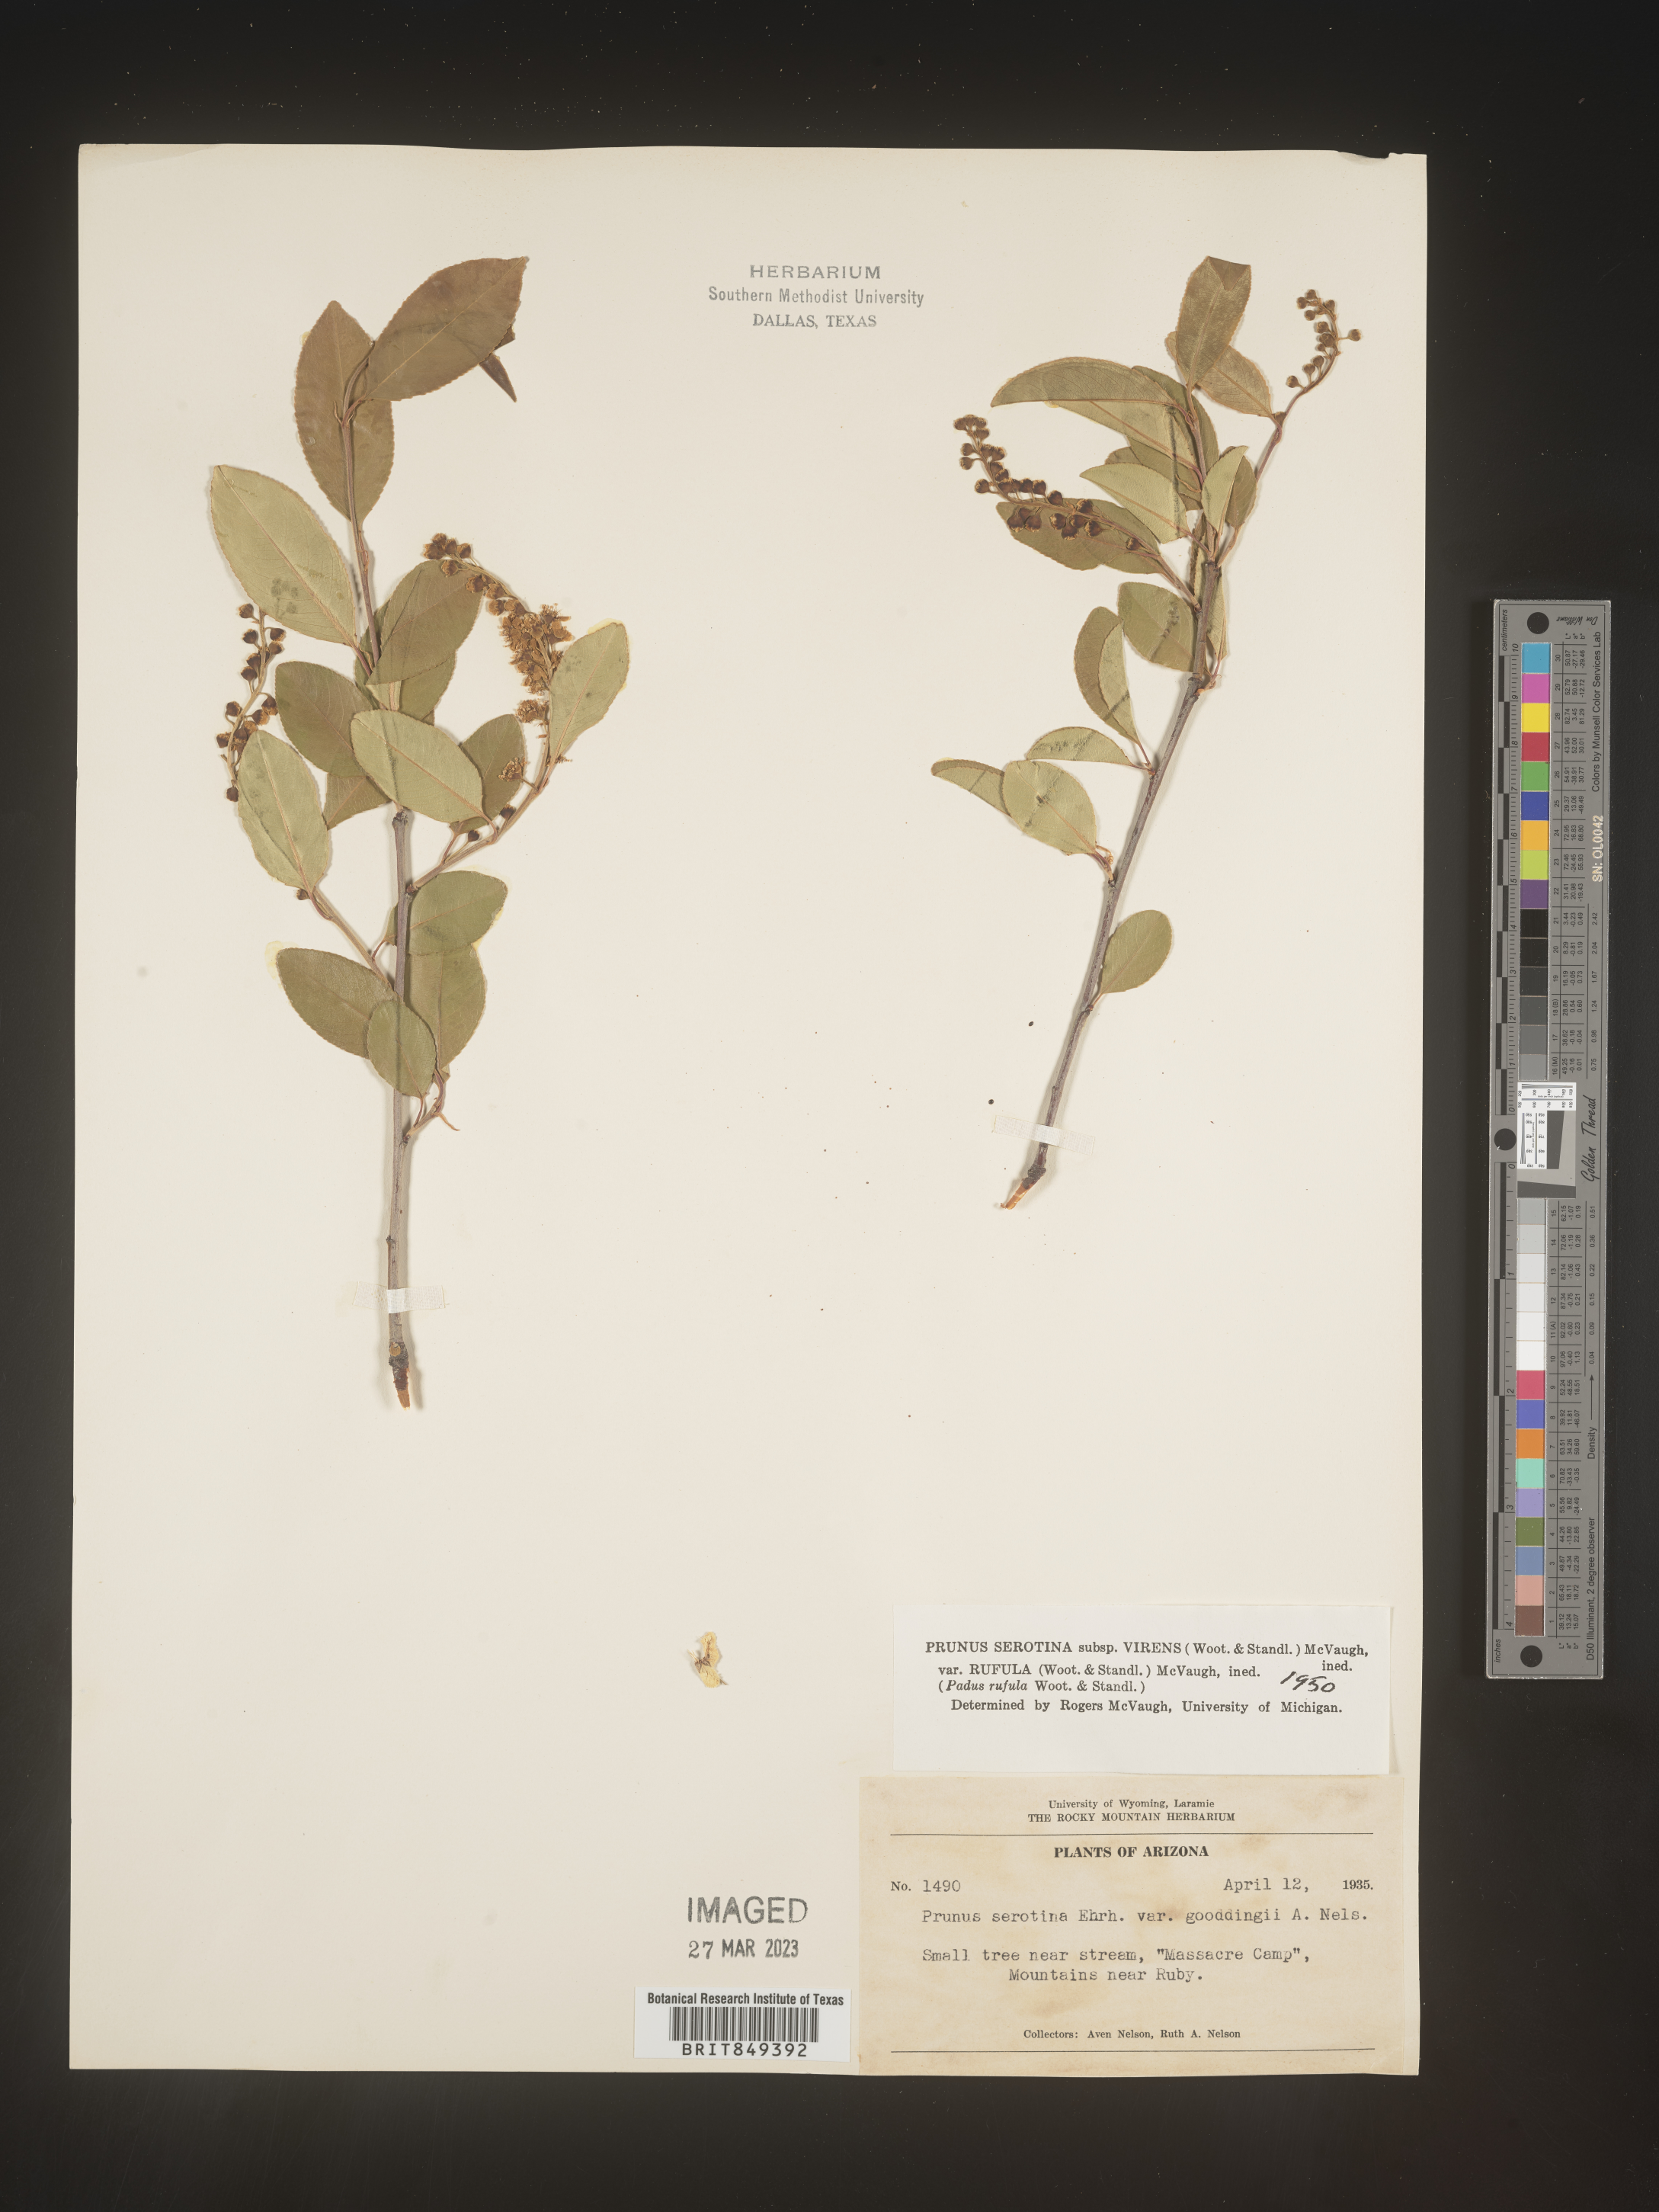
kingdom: Plantae
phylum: Tracheophyta
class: Magnoliopsida
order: Rosales
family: Rosaceae
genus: Prunus
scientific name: Prunus serotina
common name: Black cherry
